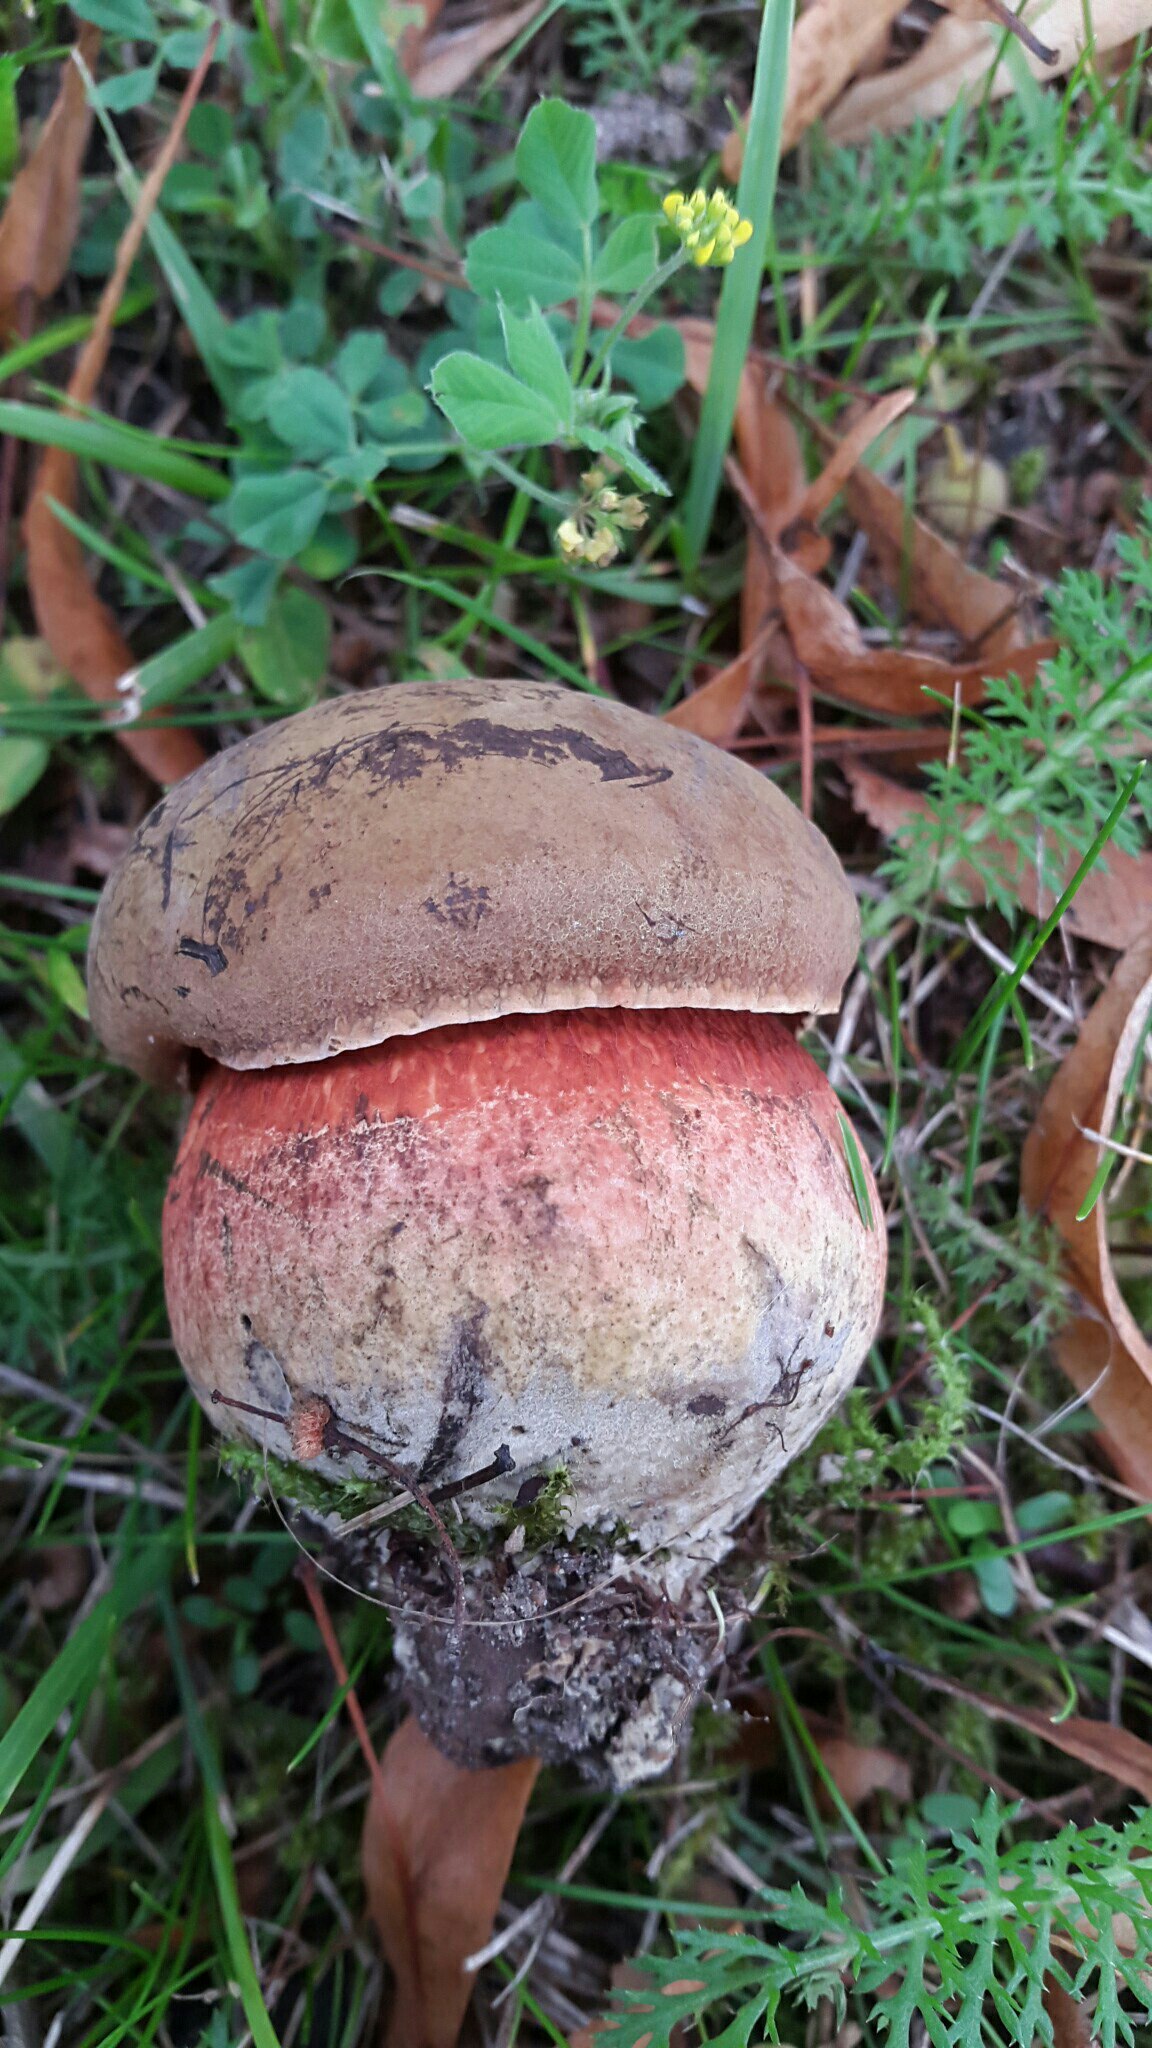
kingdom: Fungi
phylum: Basidiomycota
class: Agaricomycetes
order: Boletales
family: Boletaceae
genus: Neoboletus
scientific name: Neoboletus erythropus
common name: punktstokket indigorørhat
